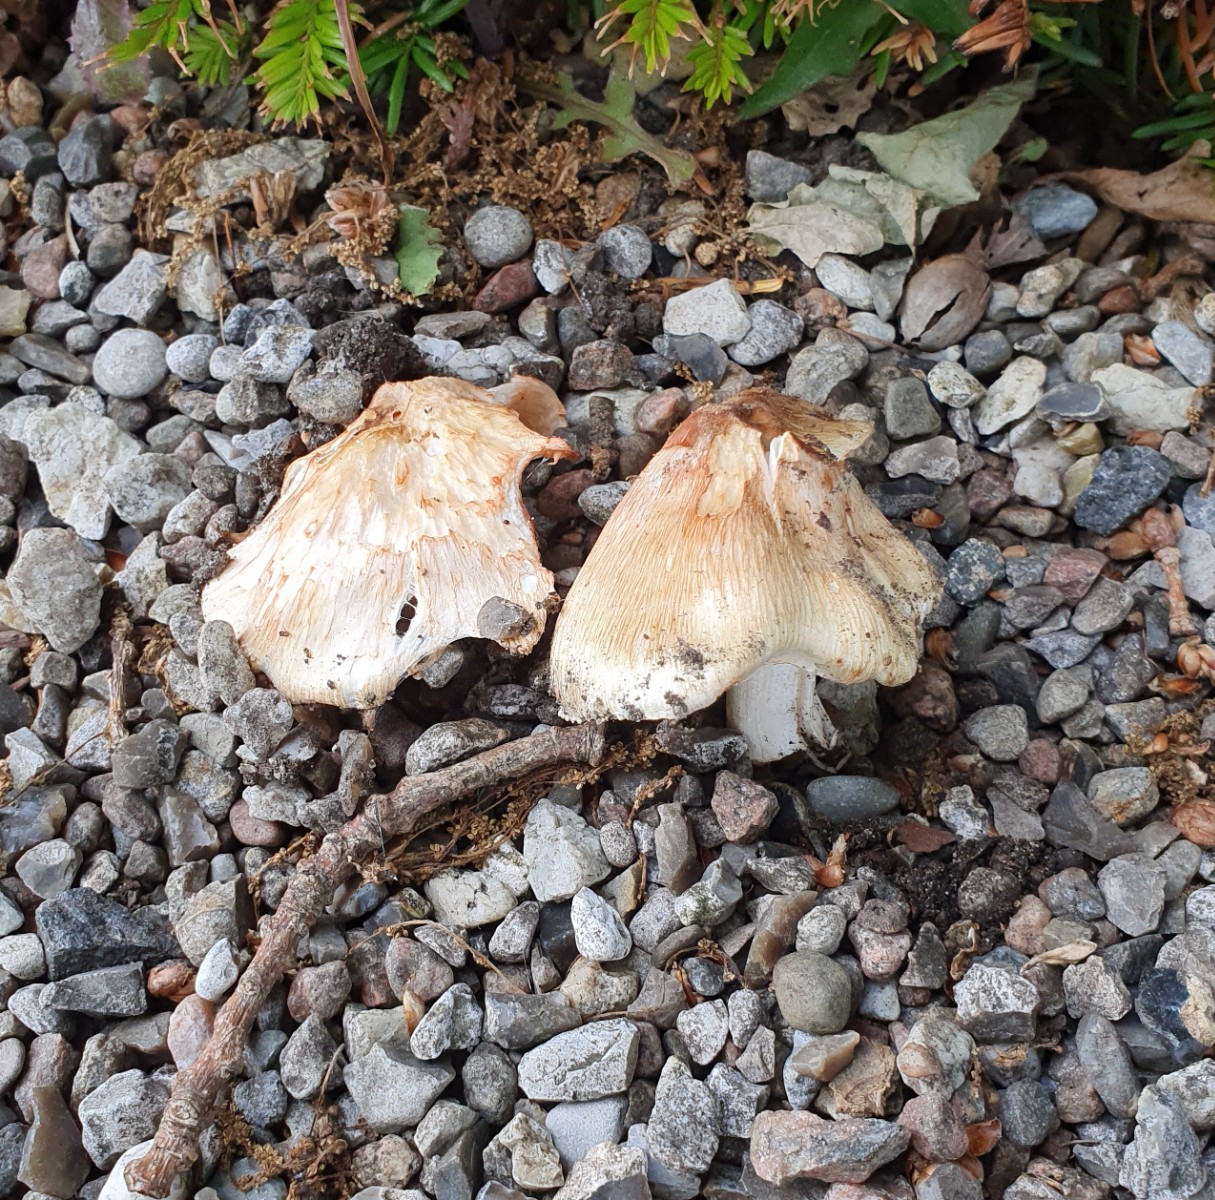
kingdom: Fungi
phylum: Basidiomycota
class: Agaricomycetes
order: Agaricales
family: Inocybaceae
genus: Inosperma
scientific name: Inosperma erubescens
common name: giftig trævlhat
